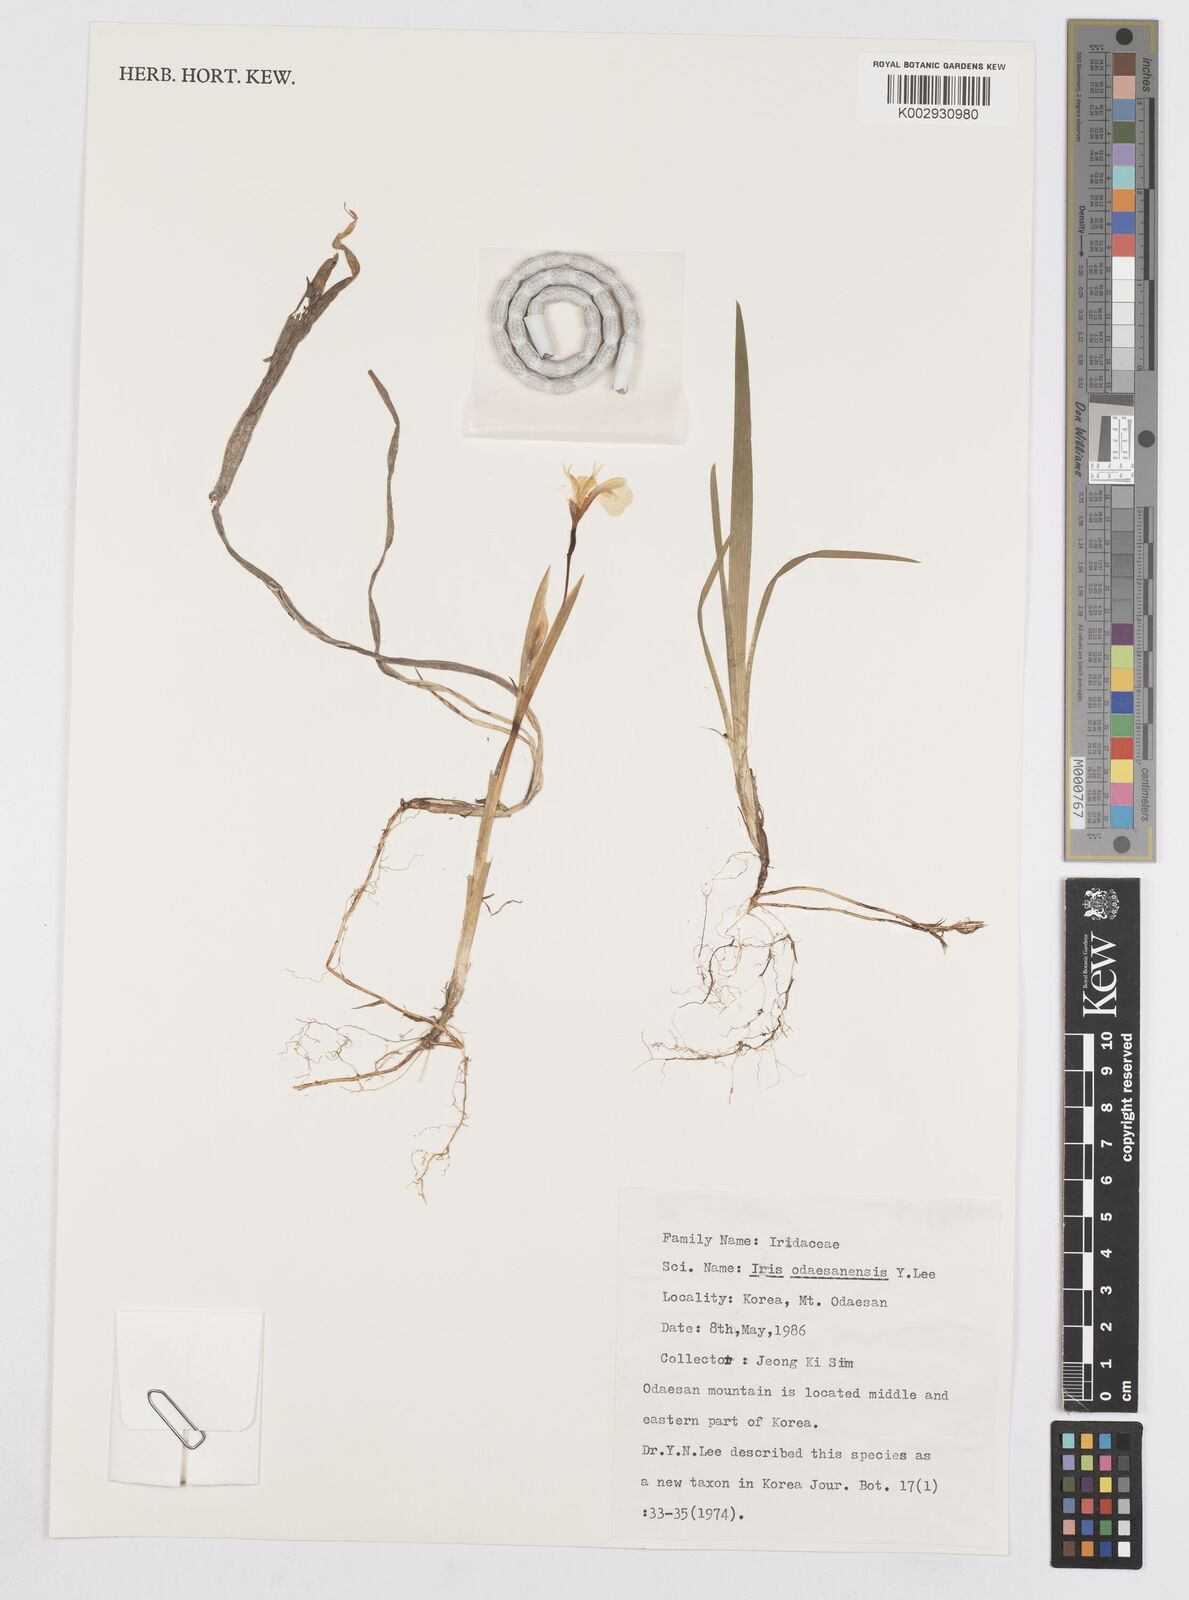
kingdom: Plantae
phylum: Tracheophyta
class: Liliopsida
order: Asparagales
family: Iridaceae
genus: Iris
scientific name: Iris odaesanensis
